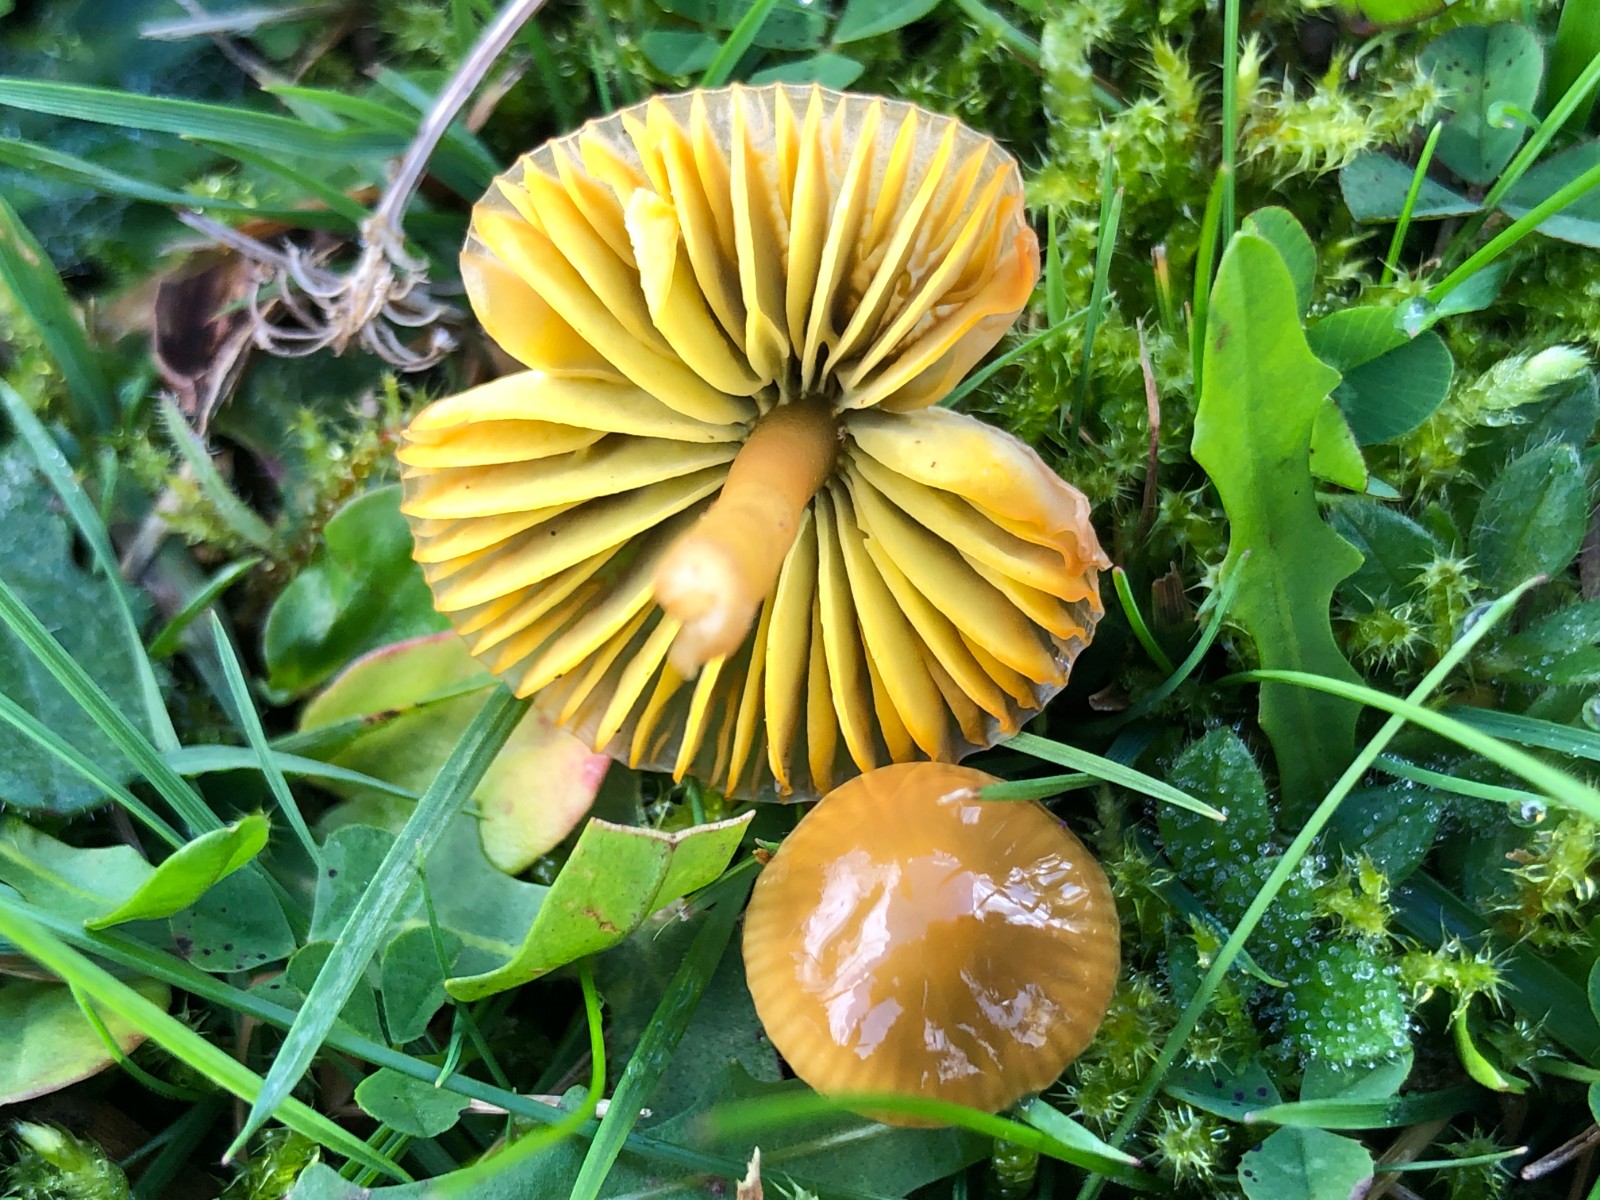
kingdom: Fungi
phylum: Basidiomycota
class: Agaricomycetes
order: Agaricales
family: Hygrophoraceae
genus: Gliophorus
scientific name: Gliophorus psittacinus
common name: papegøje-vokshat
